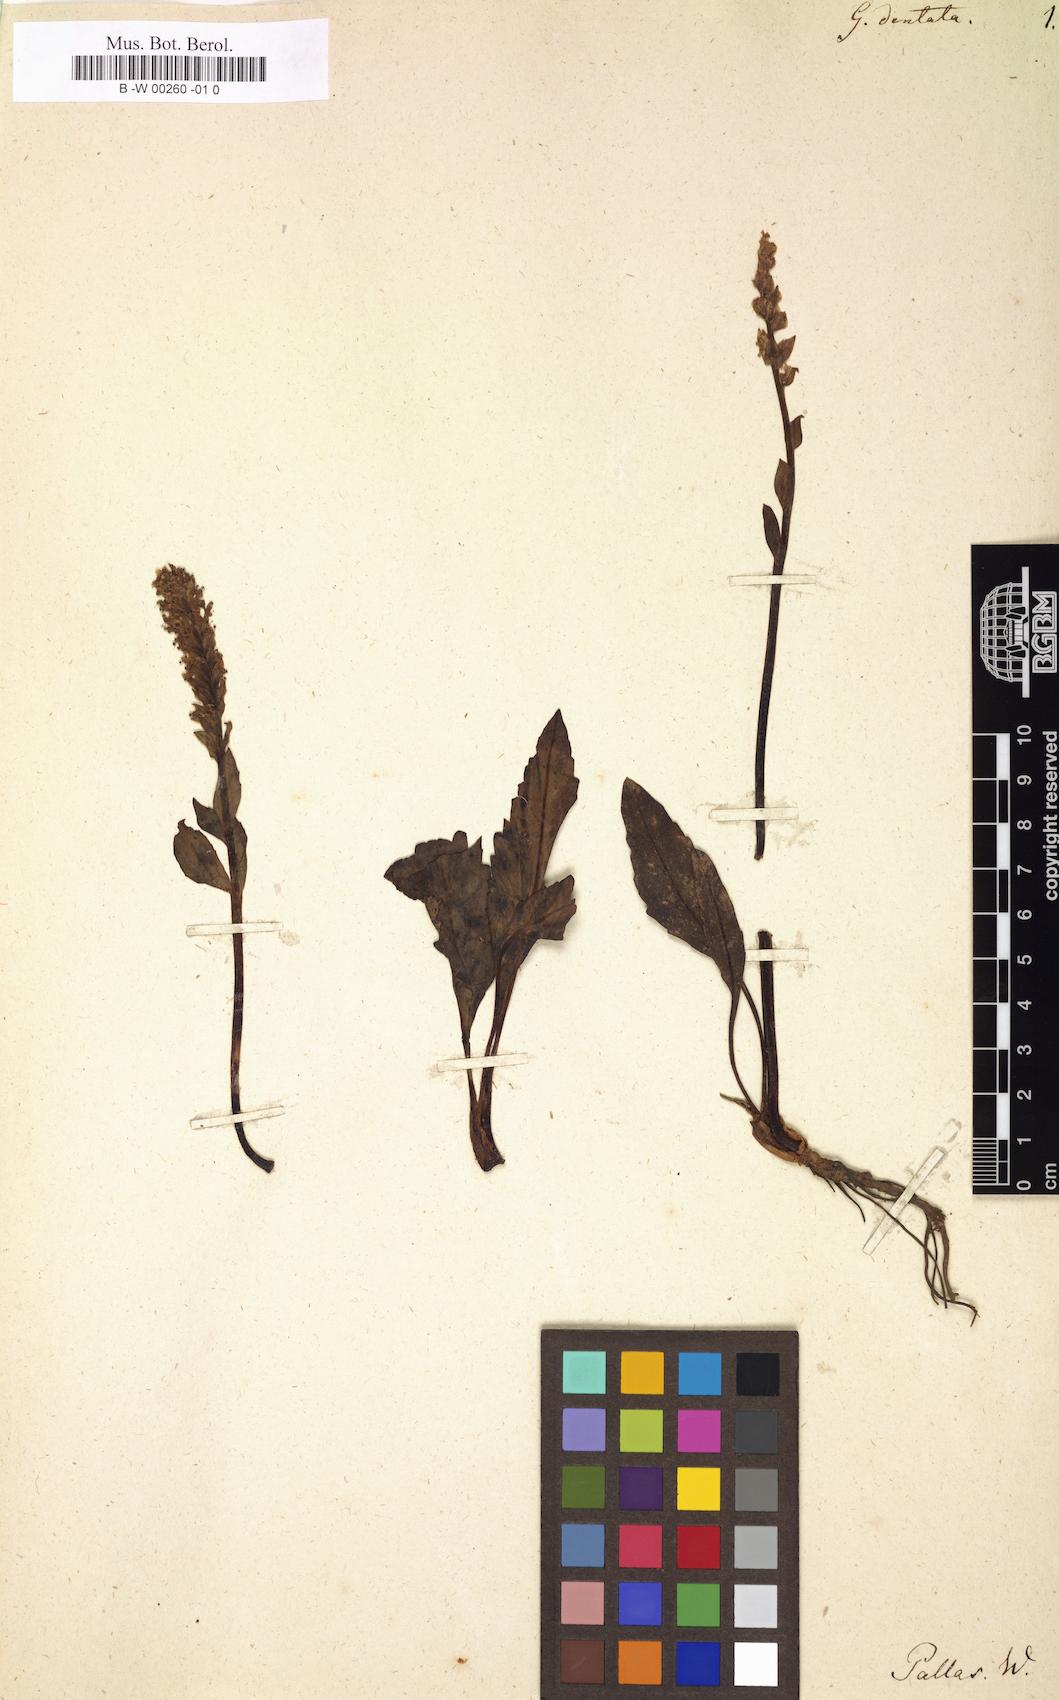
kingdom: Plantae
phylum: Tracheophyta
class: Magnoliopsida
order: Lamiales
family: Plantaginaceae
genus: Lagotis
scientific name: Lagotis glauca
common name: Glaucous weaselsnout
